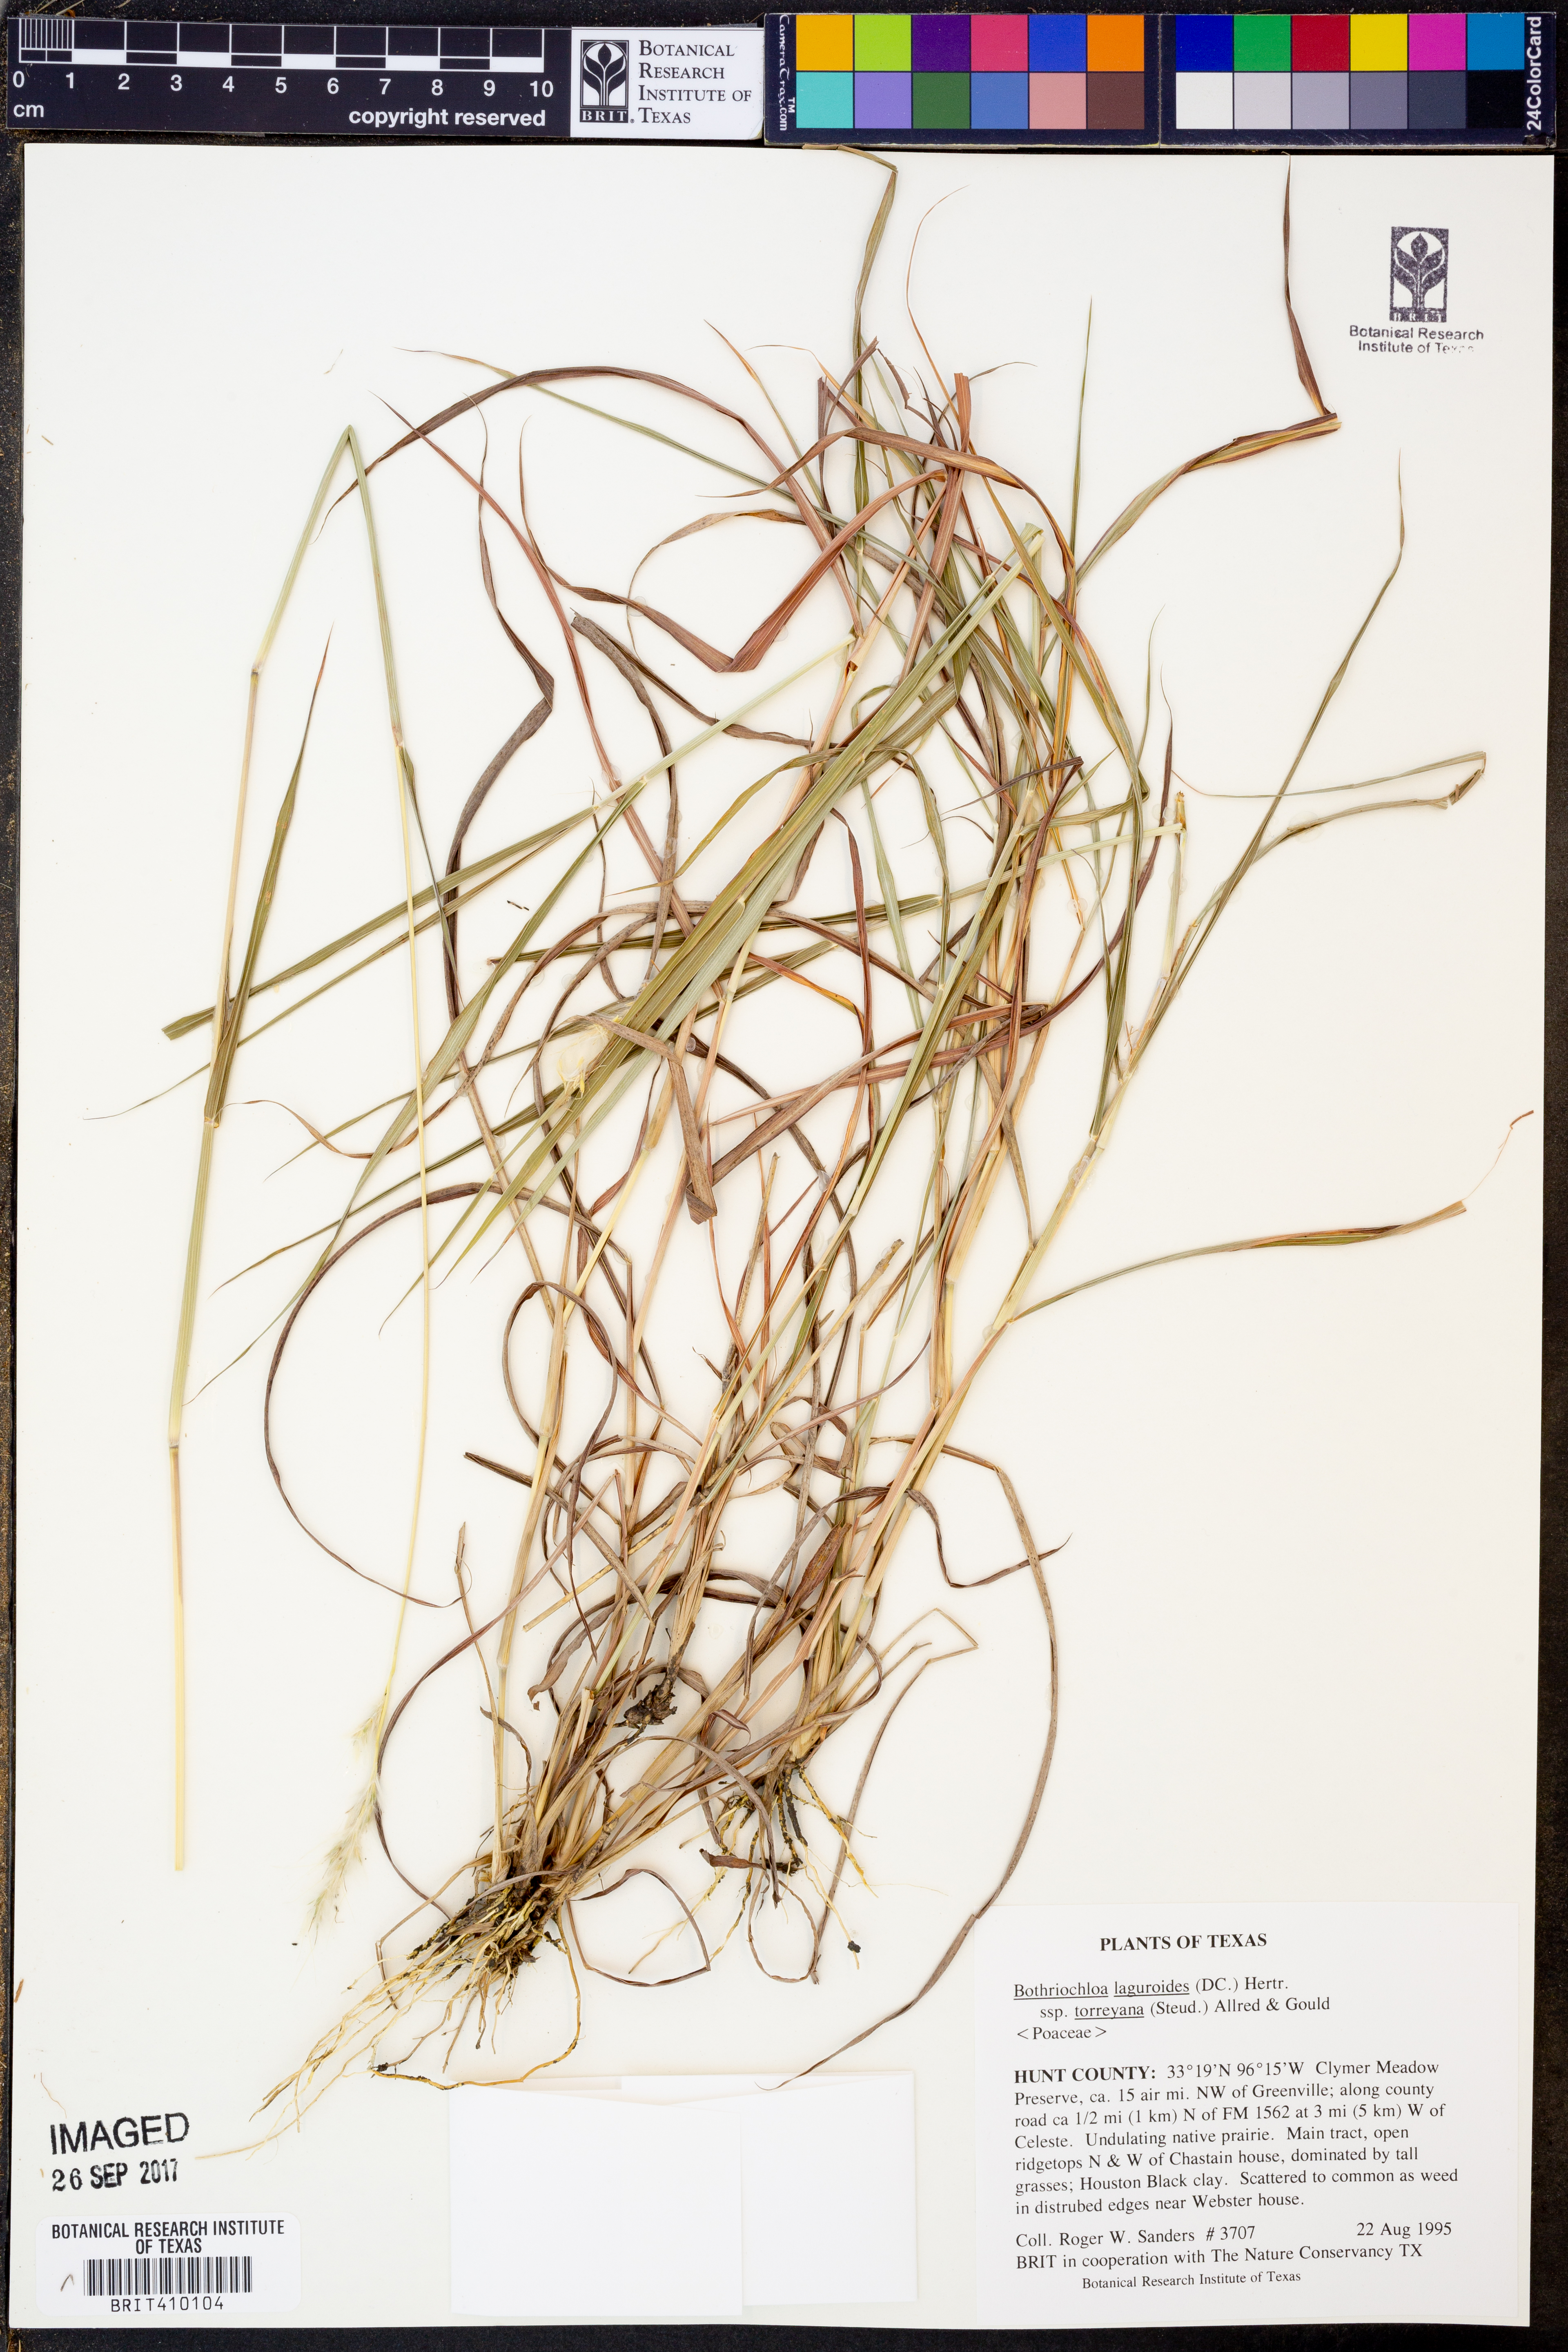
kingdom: Plantae
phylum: Tracheophyta
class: Liliopsida
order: Poales
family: Poaceae
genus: Bothriochloa
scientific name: Bothriochloa torreyana
